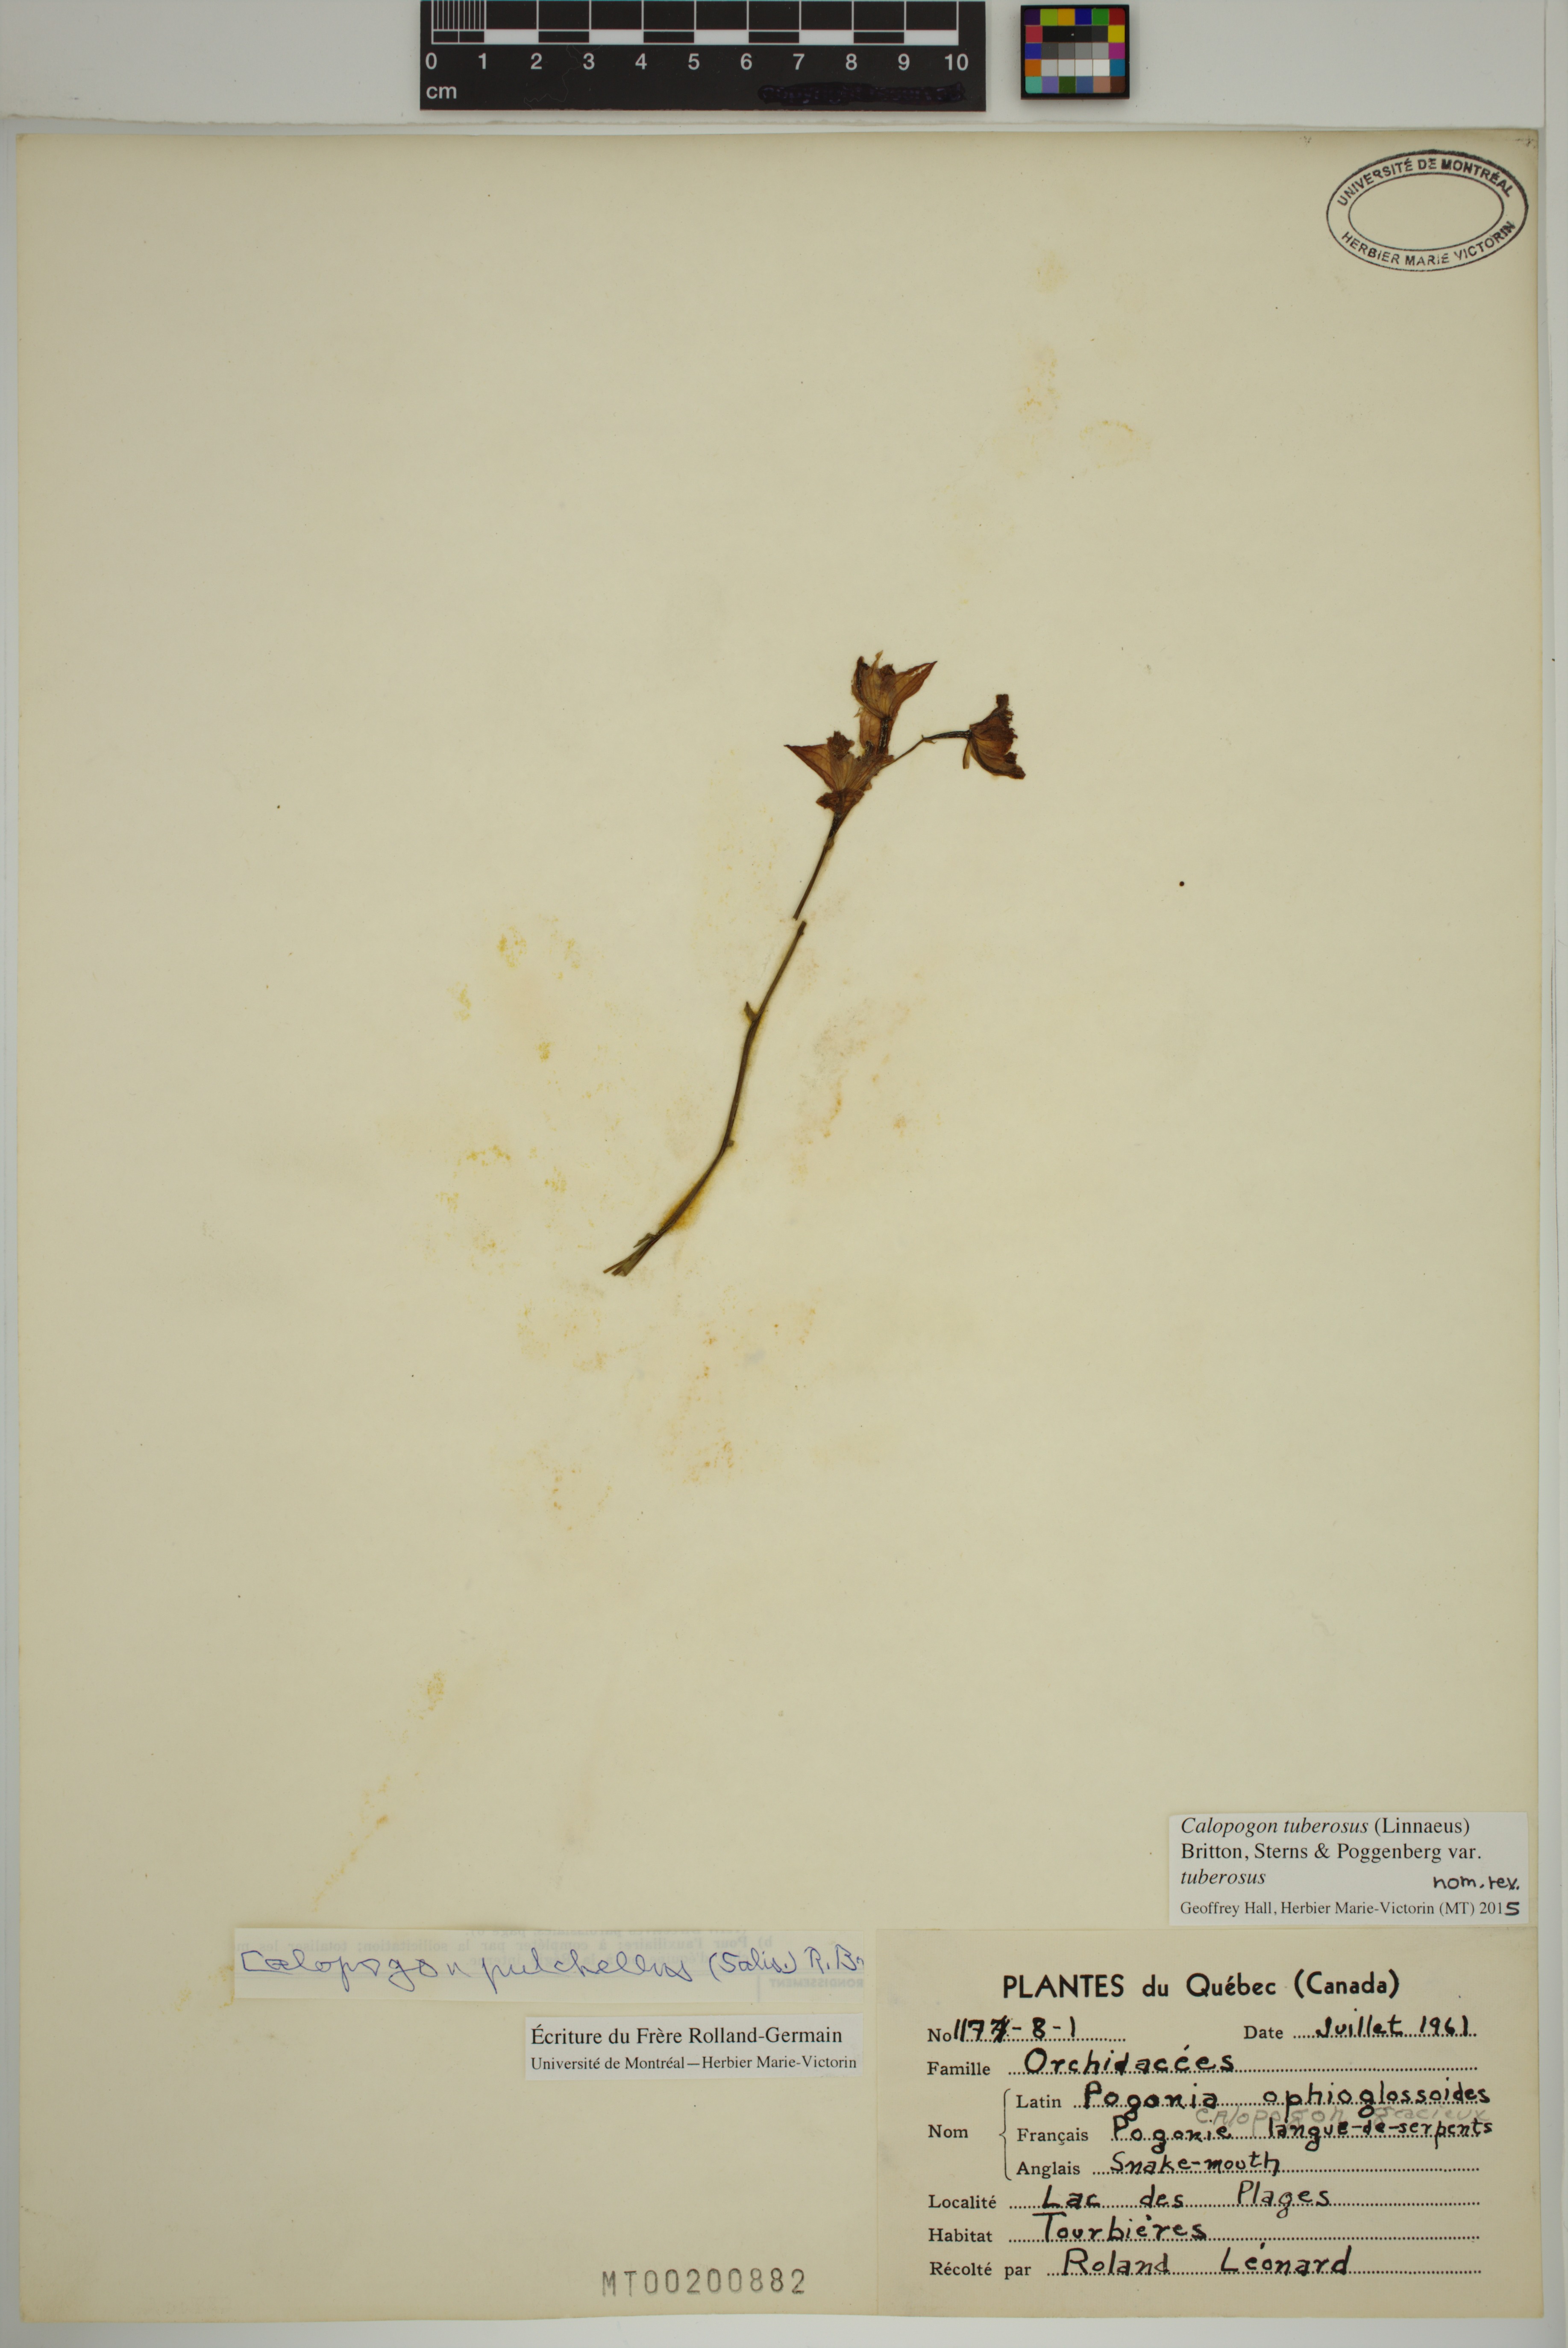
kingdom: Plantae
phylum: Tracheophyta
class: Liliopsida
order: Asparagales
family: Orchidaceae
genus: Calopogon
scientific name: Calopogon tuberosus
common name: Grass-pink
